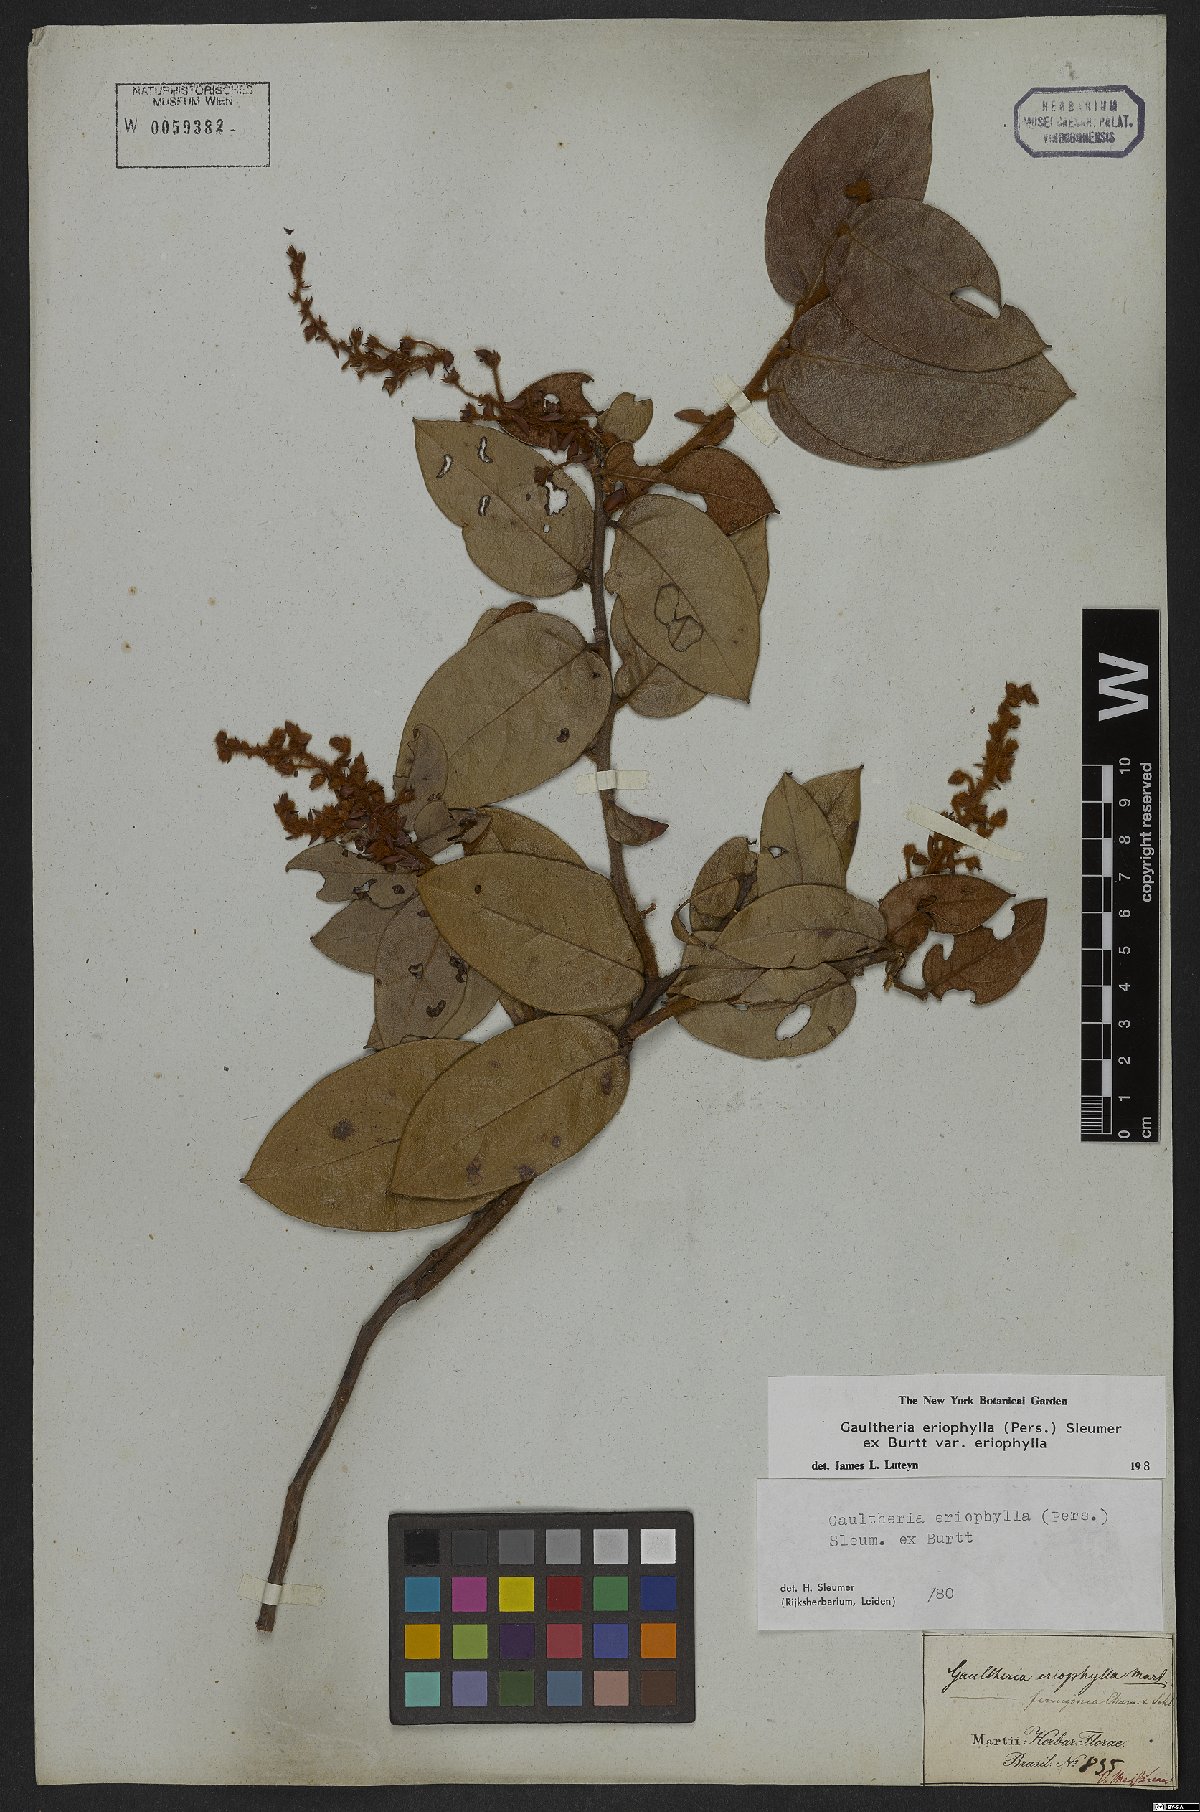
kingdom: Plantae
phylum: Tracheophyta
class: Magnoliopsida
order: Ericales
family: Ericaceae
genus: Gaultheria
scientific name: Gaultheria eriophylla
